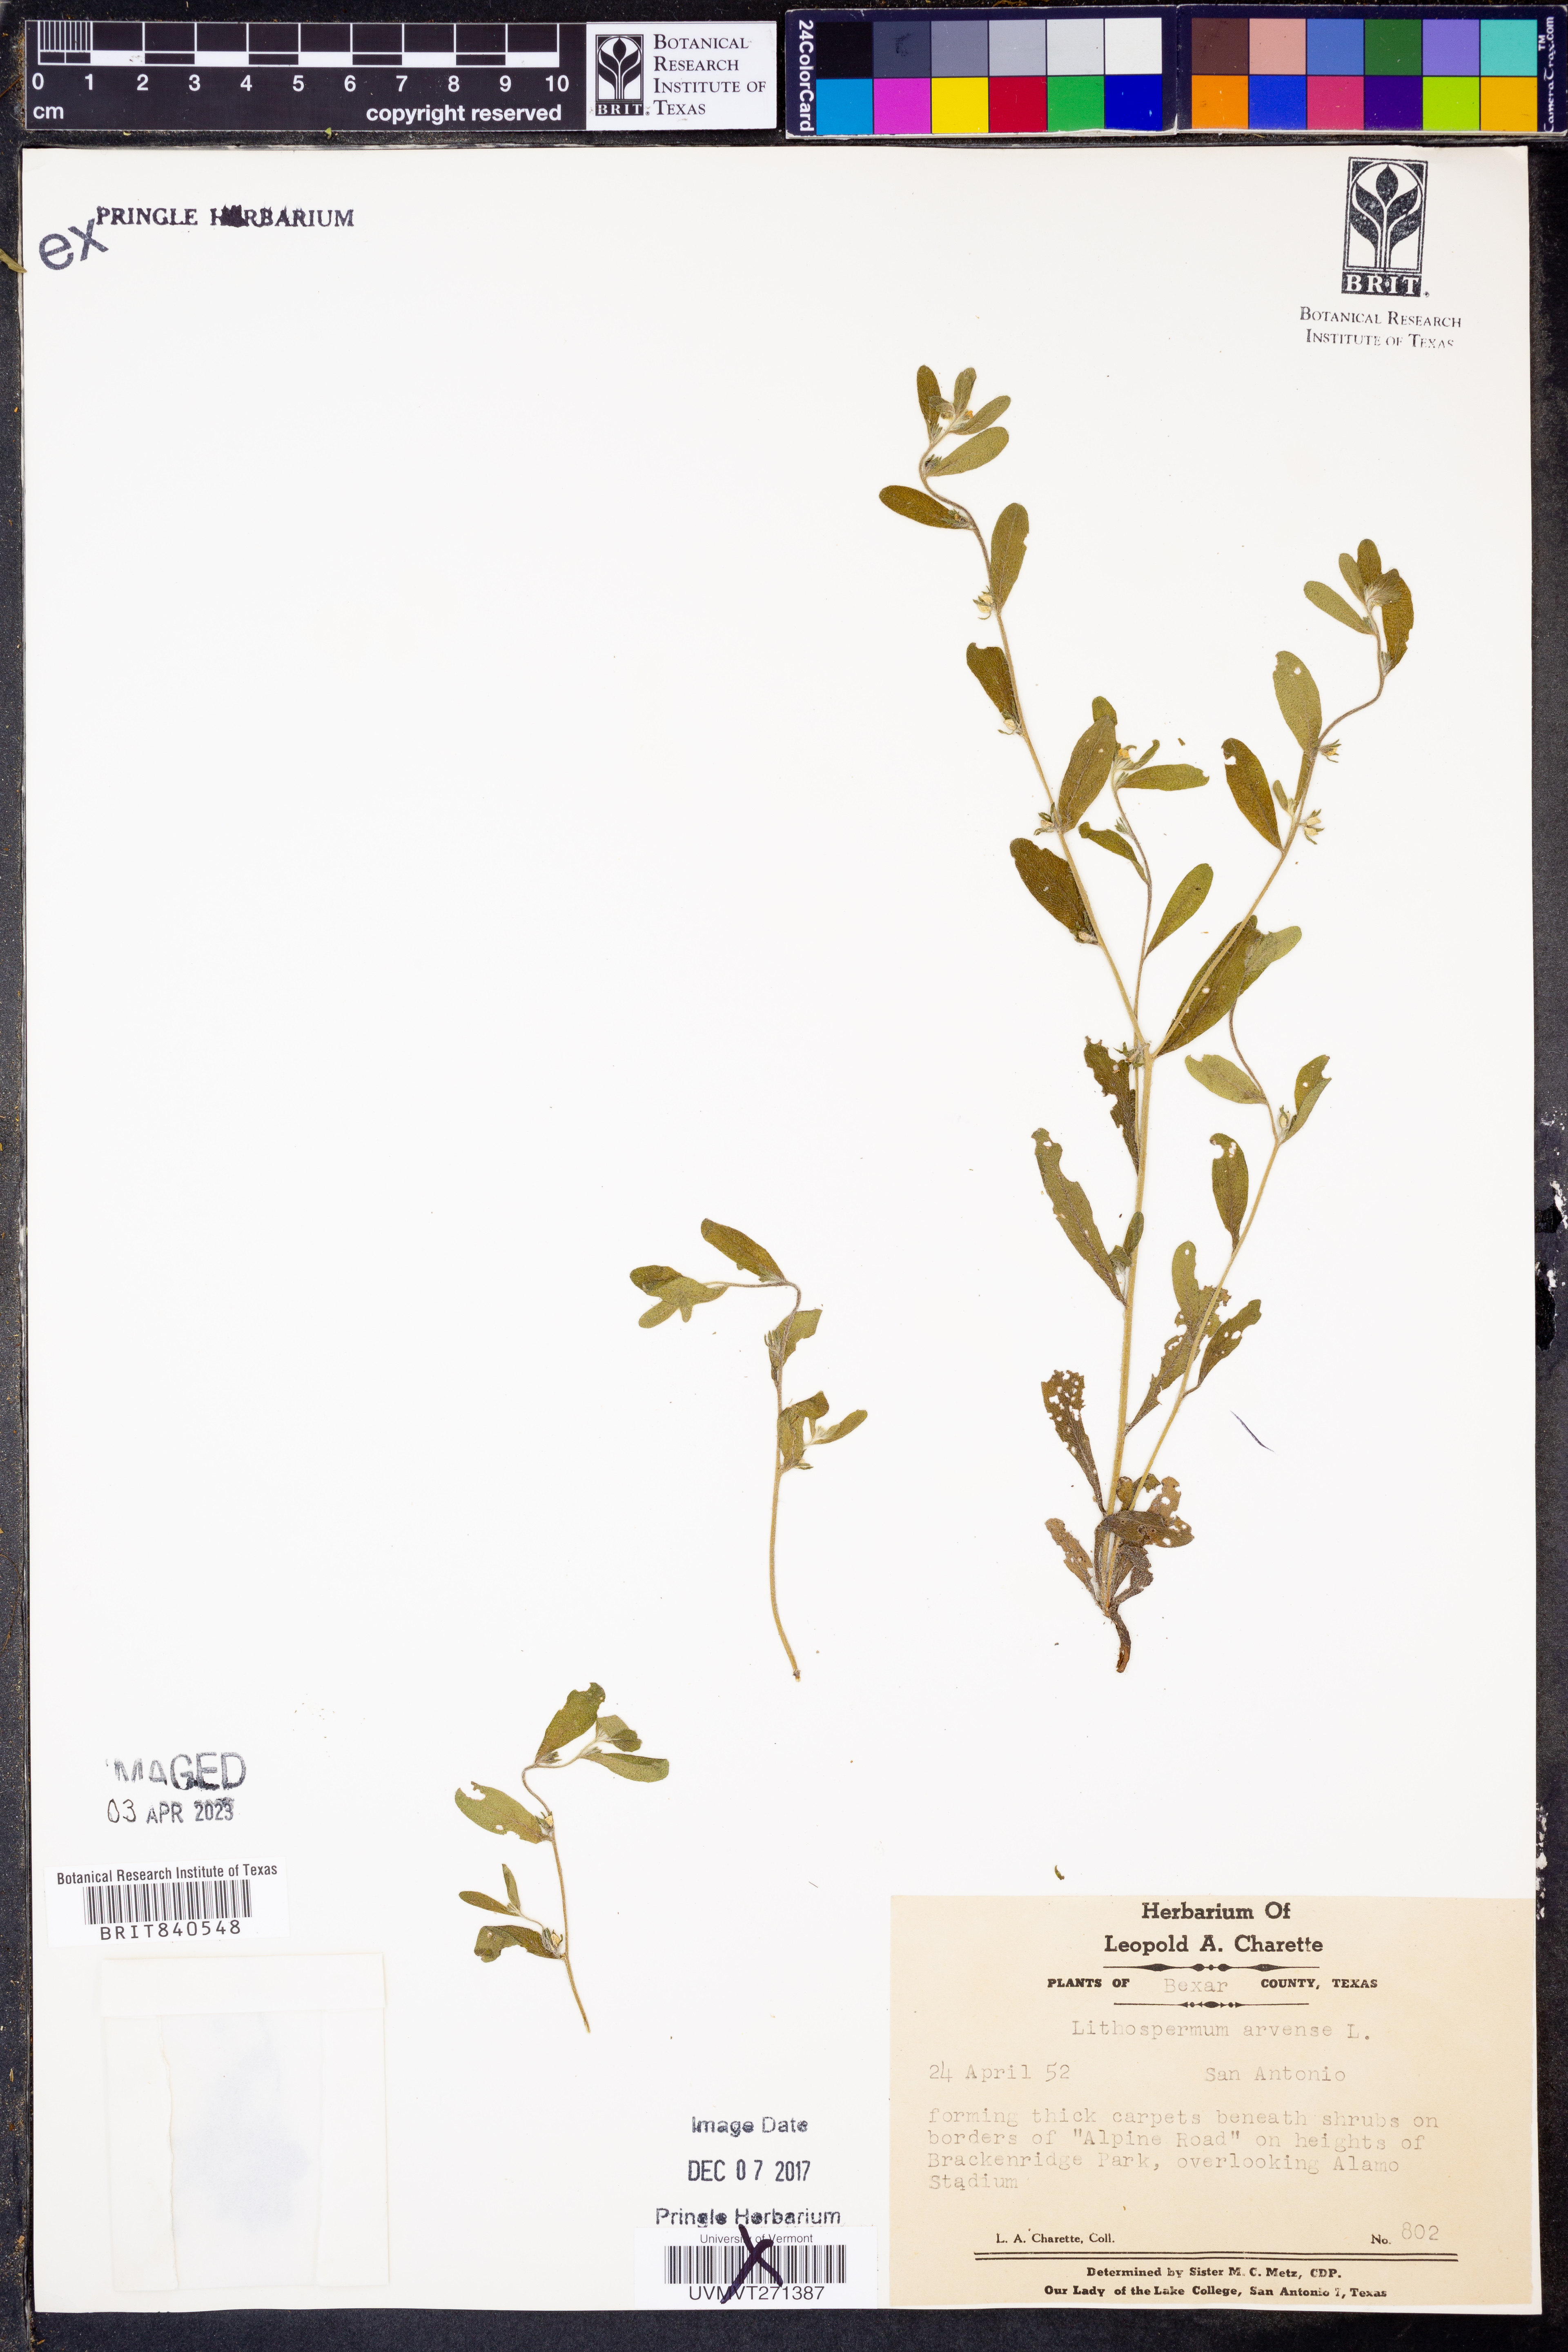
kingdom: Plantae
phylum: Tracheophyta
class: Magnoliopsida
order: Boraginales
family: Boraginaceae
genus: Lithospermum
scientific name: Lithospermum erythrorhizon
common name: Purple gromwell
